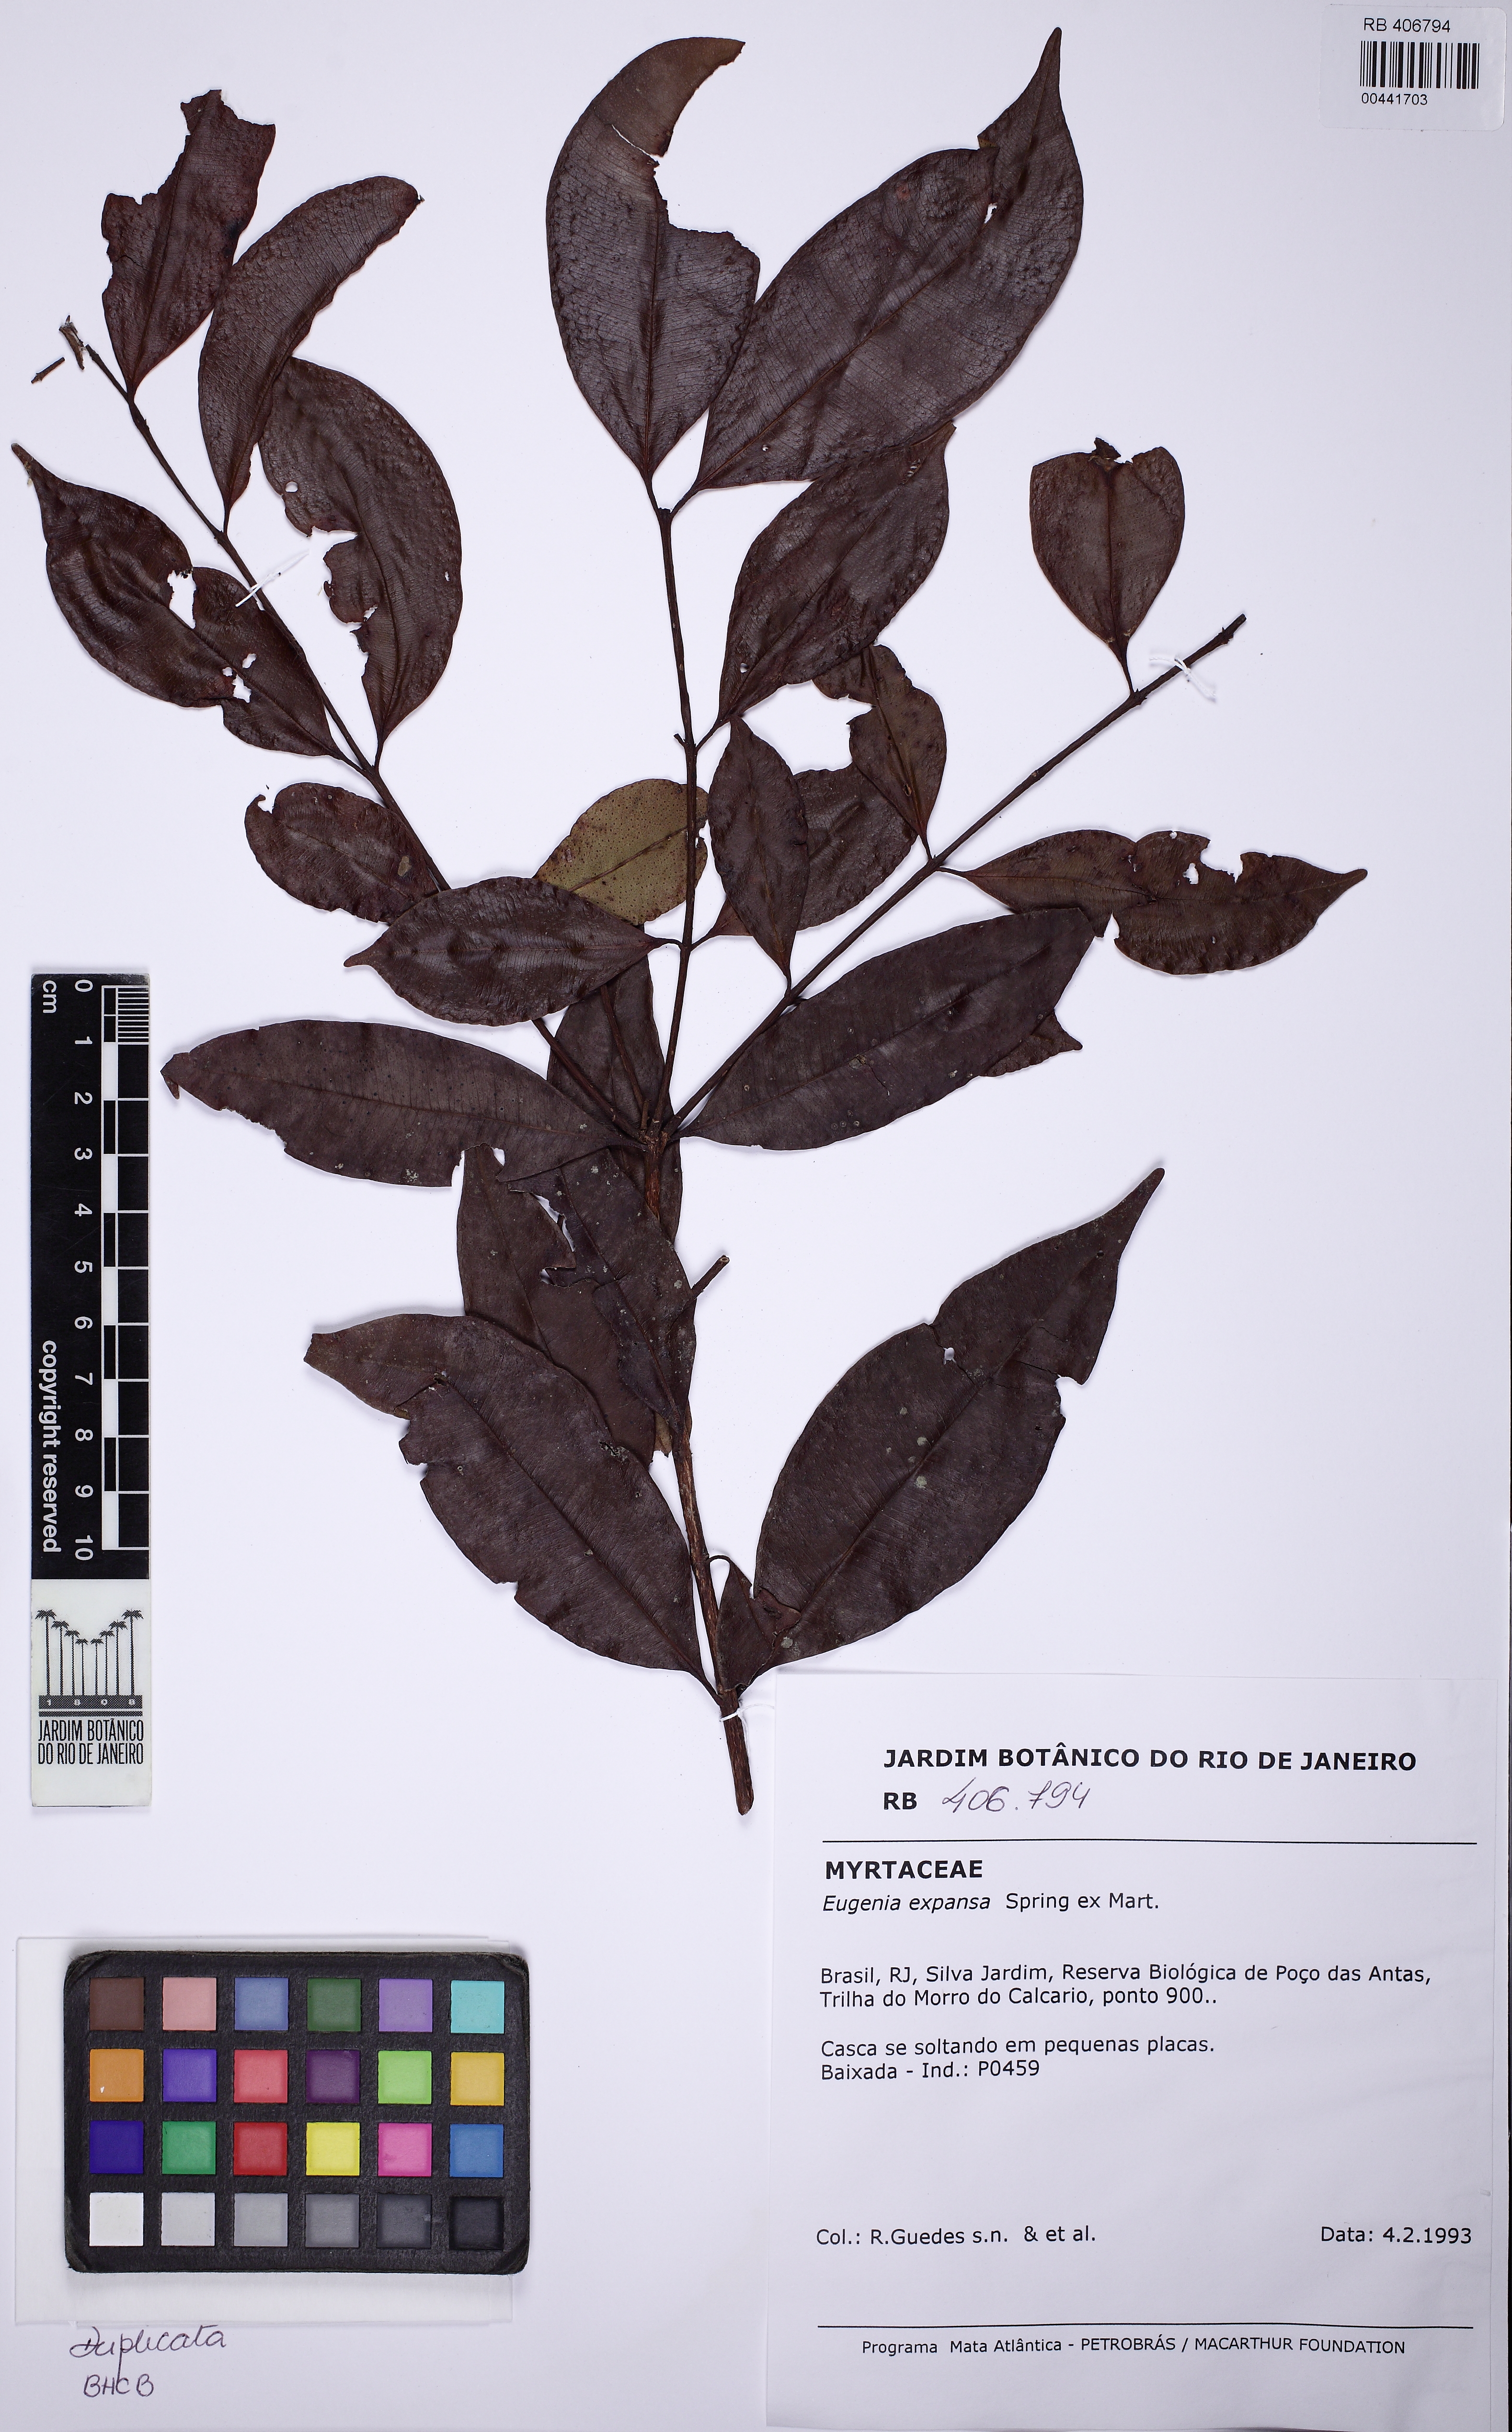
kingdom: Plantae
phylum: Tracheophyta
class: Magnoliopsida
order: Myrtales
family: Myrtaceae
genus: Eugenia
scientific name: Eugenia expansa
